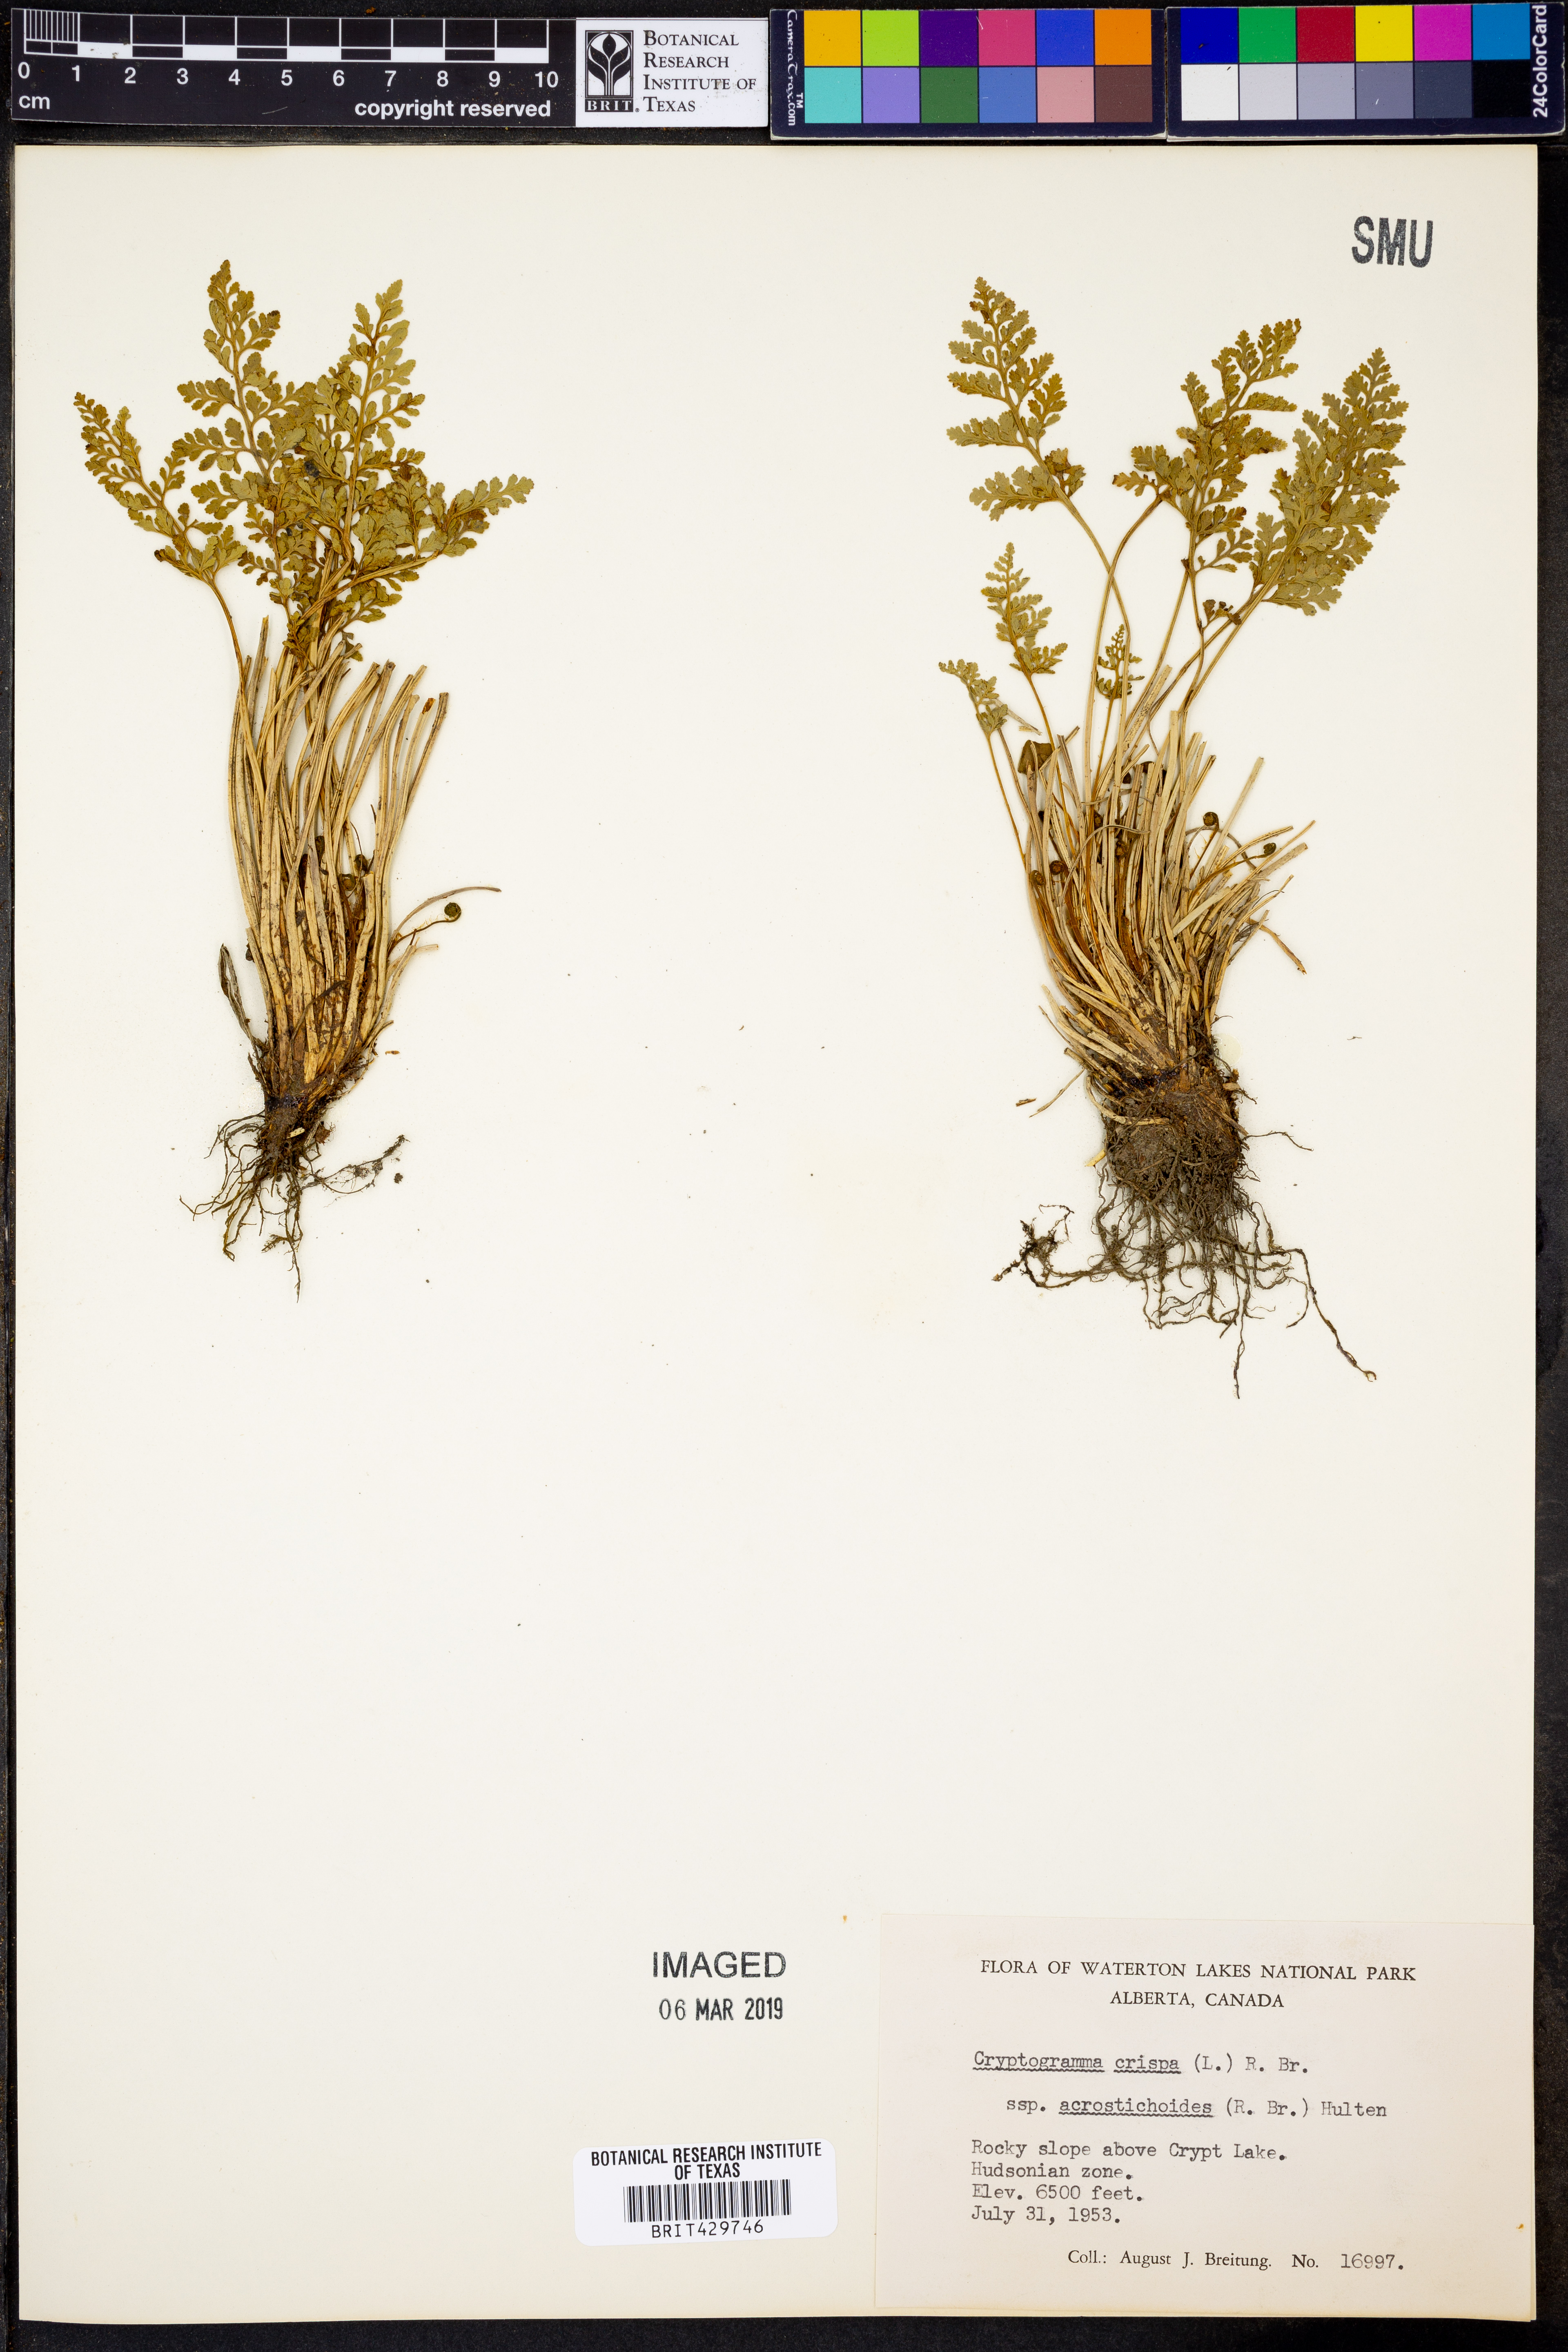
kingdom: Plantae
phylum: Tracheophyta
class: Polypodiopsida
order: Polypodiales
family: Pteridaceae
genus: Cryptogramma
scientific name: Cryptogramma acrostichoides
